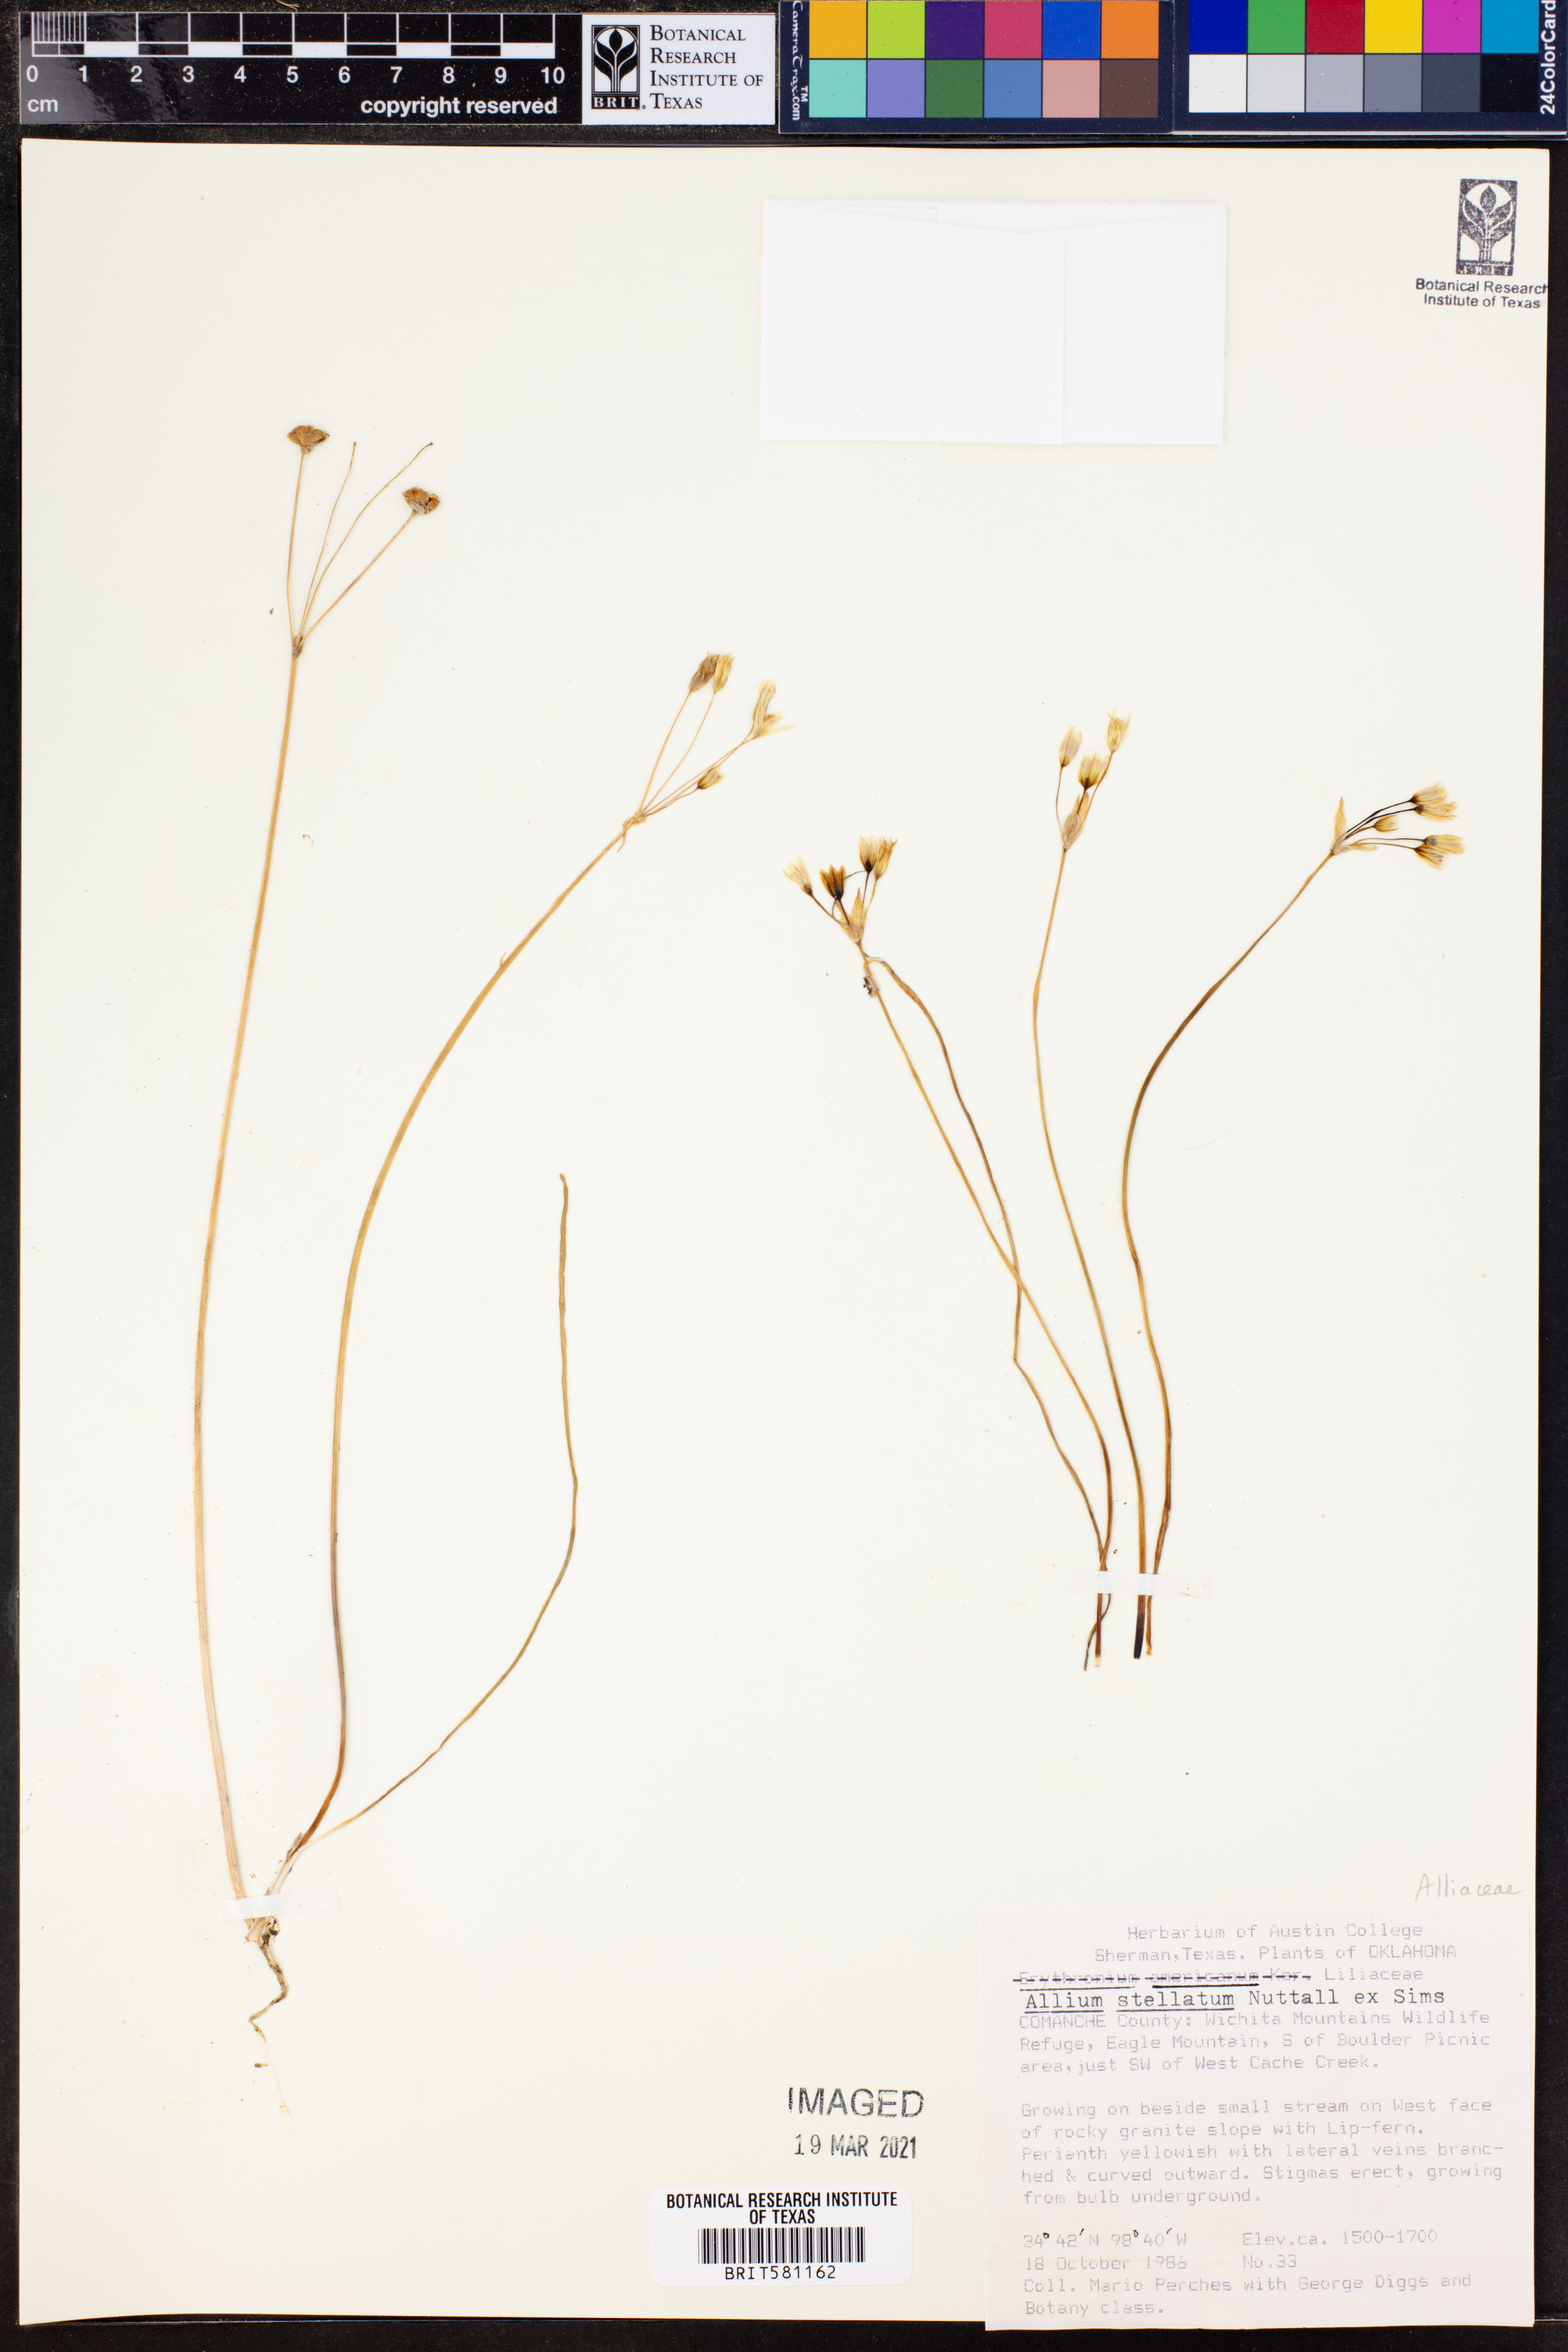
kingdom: Plantae
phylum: Tracheophyta
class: Liliopsida
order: Asparagales
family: Amaryllidaceae
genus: Allium
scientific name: Allium stellatum
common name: Autumn onion
